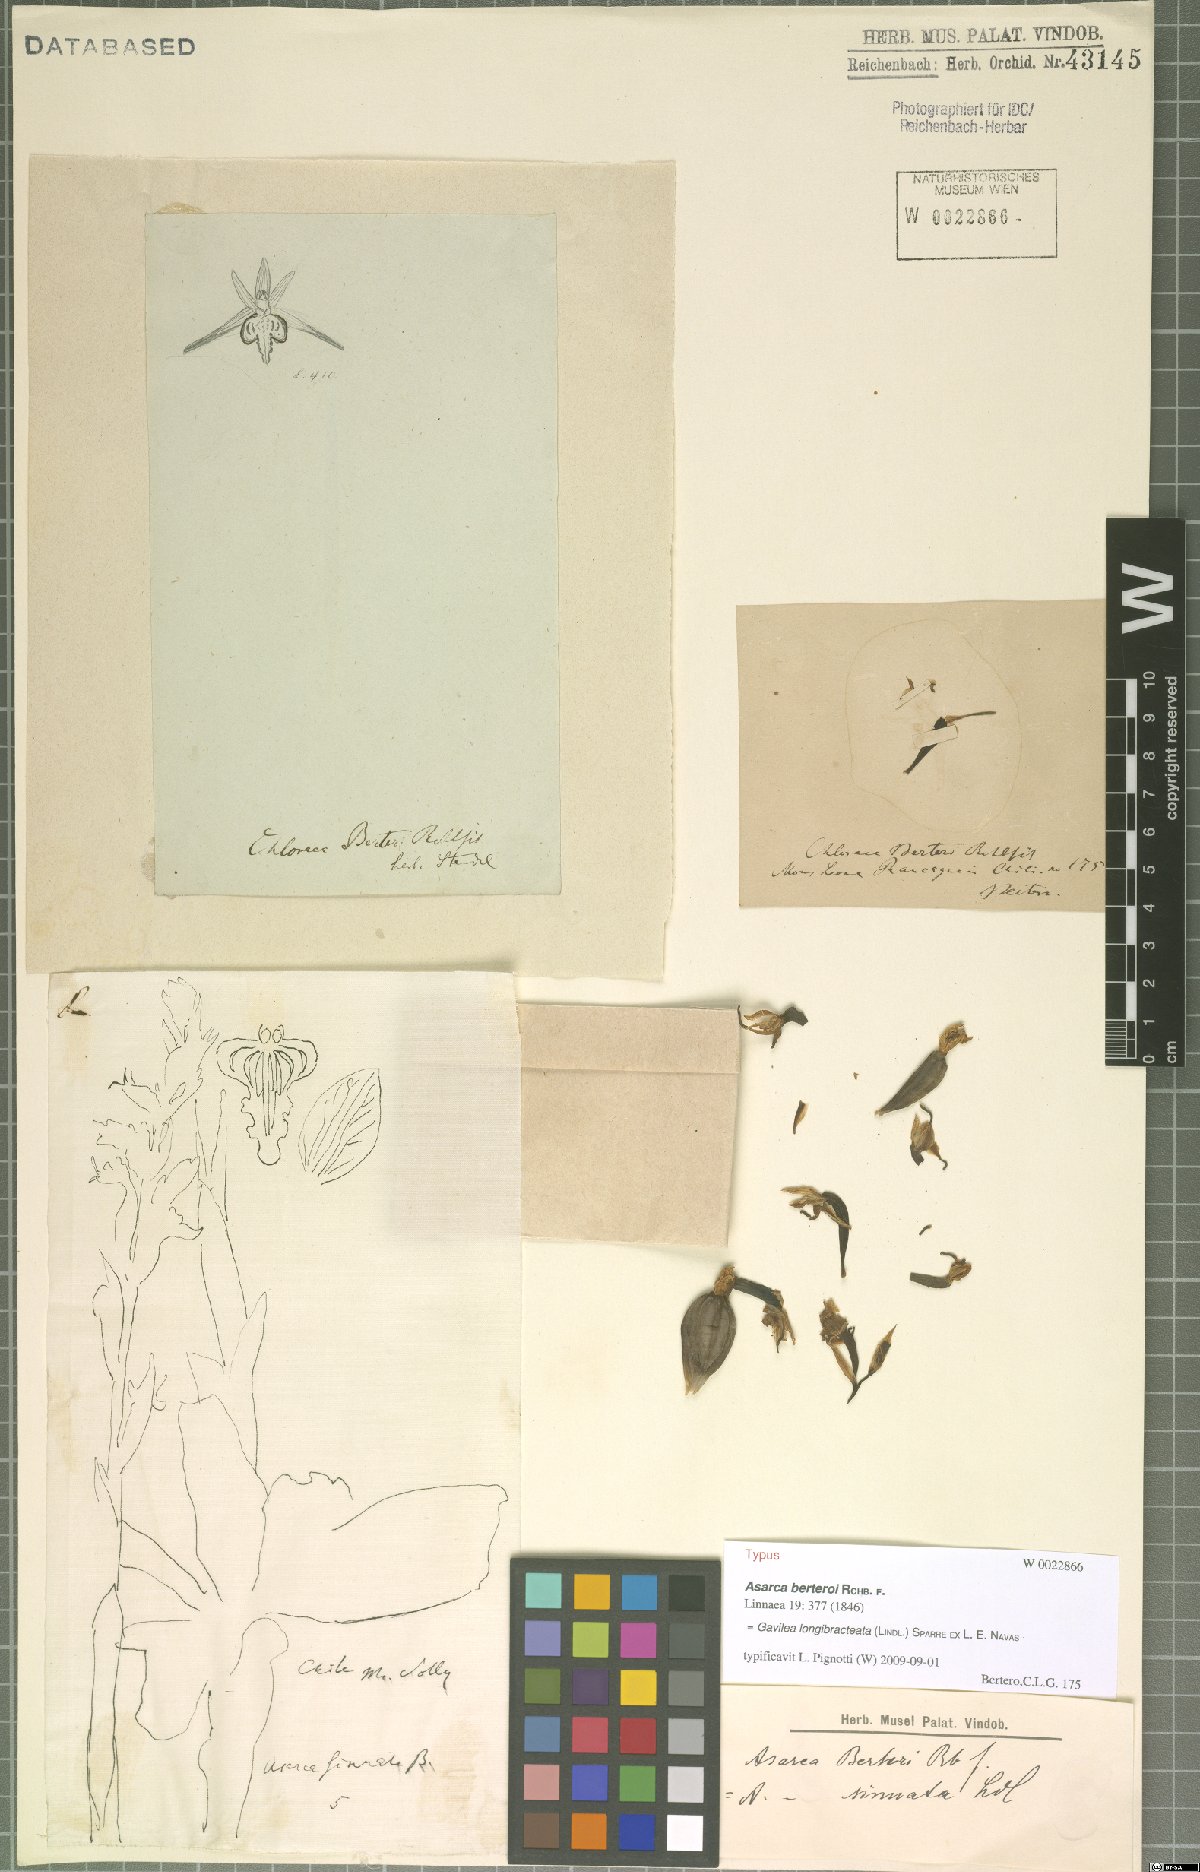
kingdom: Plantae
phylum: Tracheophyta
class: Liliopsida
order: Asparagales
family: Orchidaceae
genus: Gavilea
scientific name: Gavilea longibracteata
